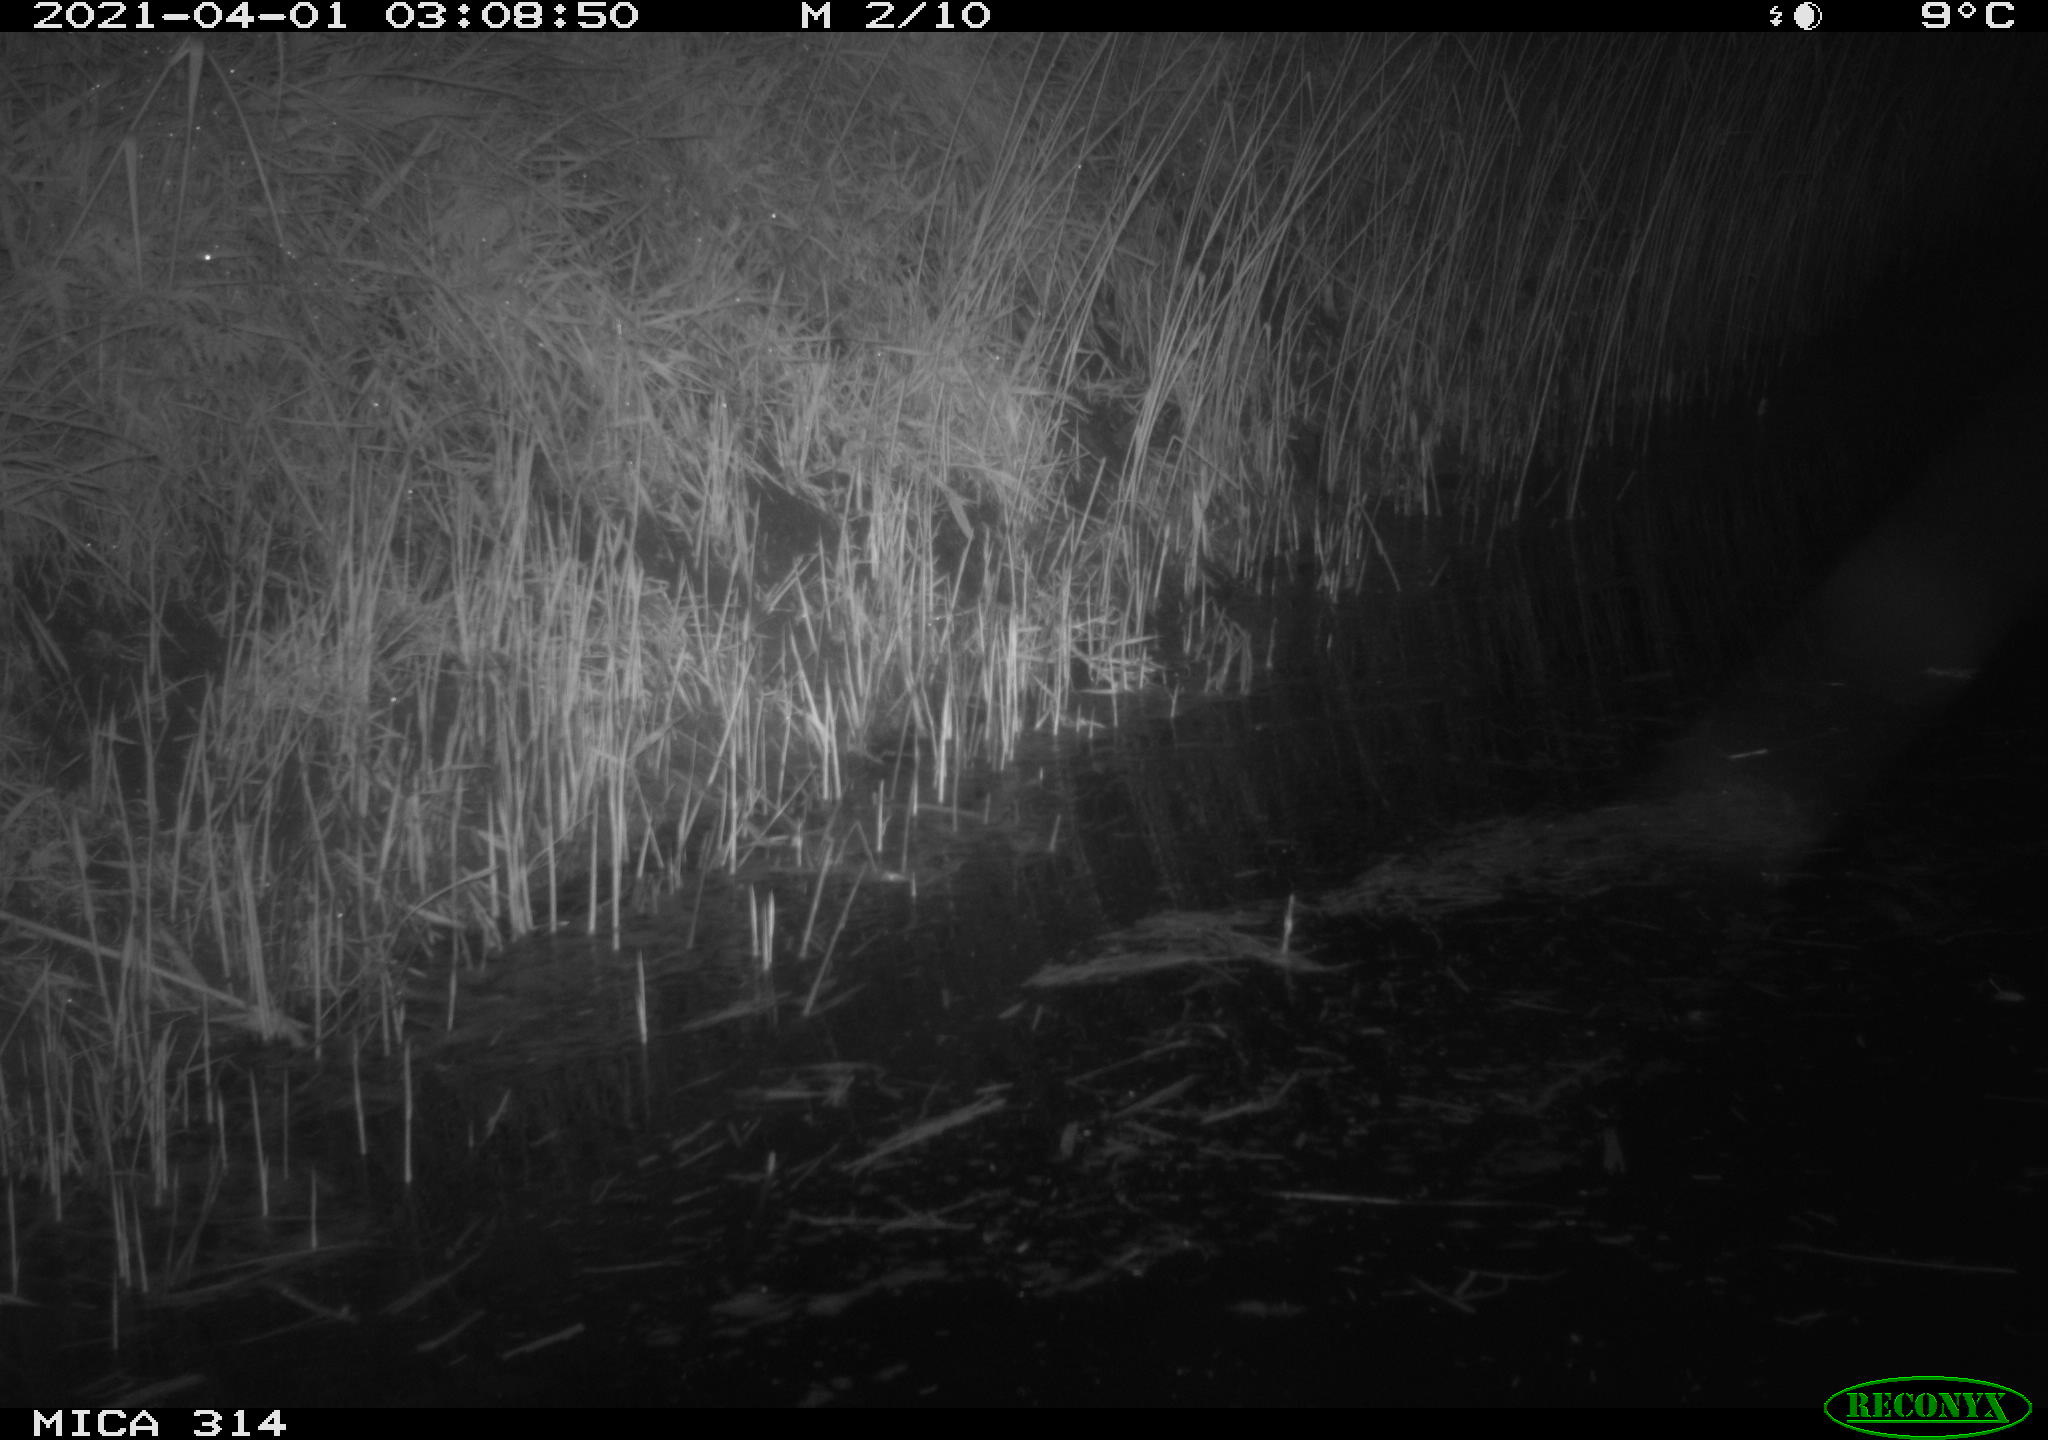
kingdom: Animalia
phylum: Chordata
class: Mammalia
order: Rodentia
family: Muridae
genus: Rattus
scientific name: Rattus norvegicus
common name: Brown rat
